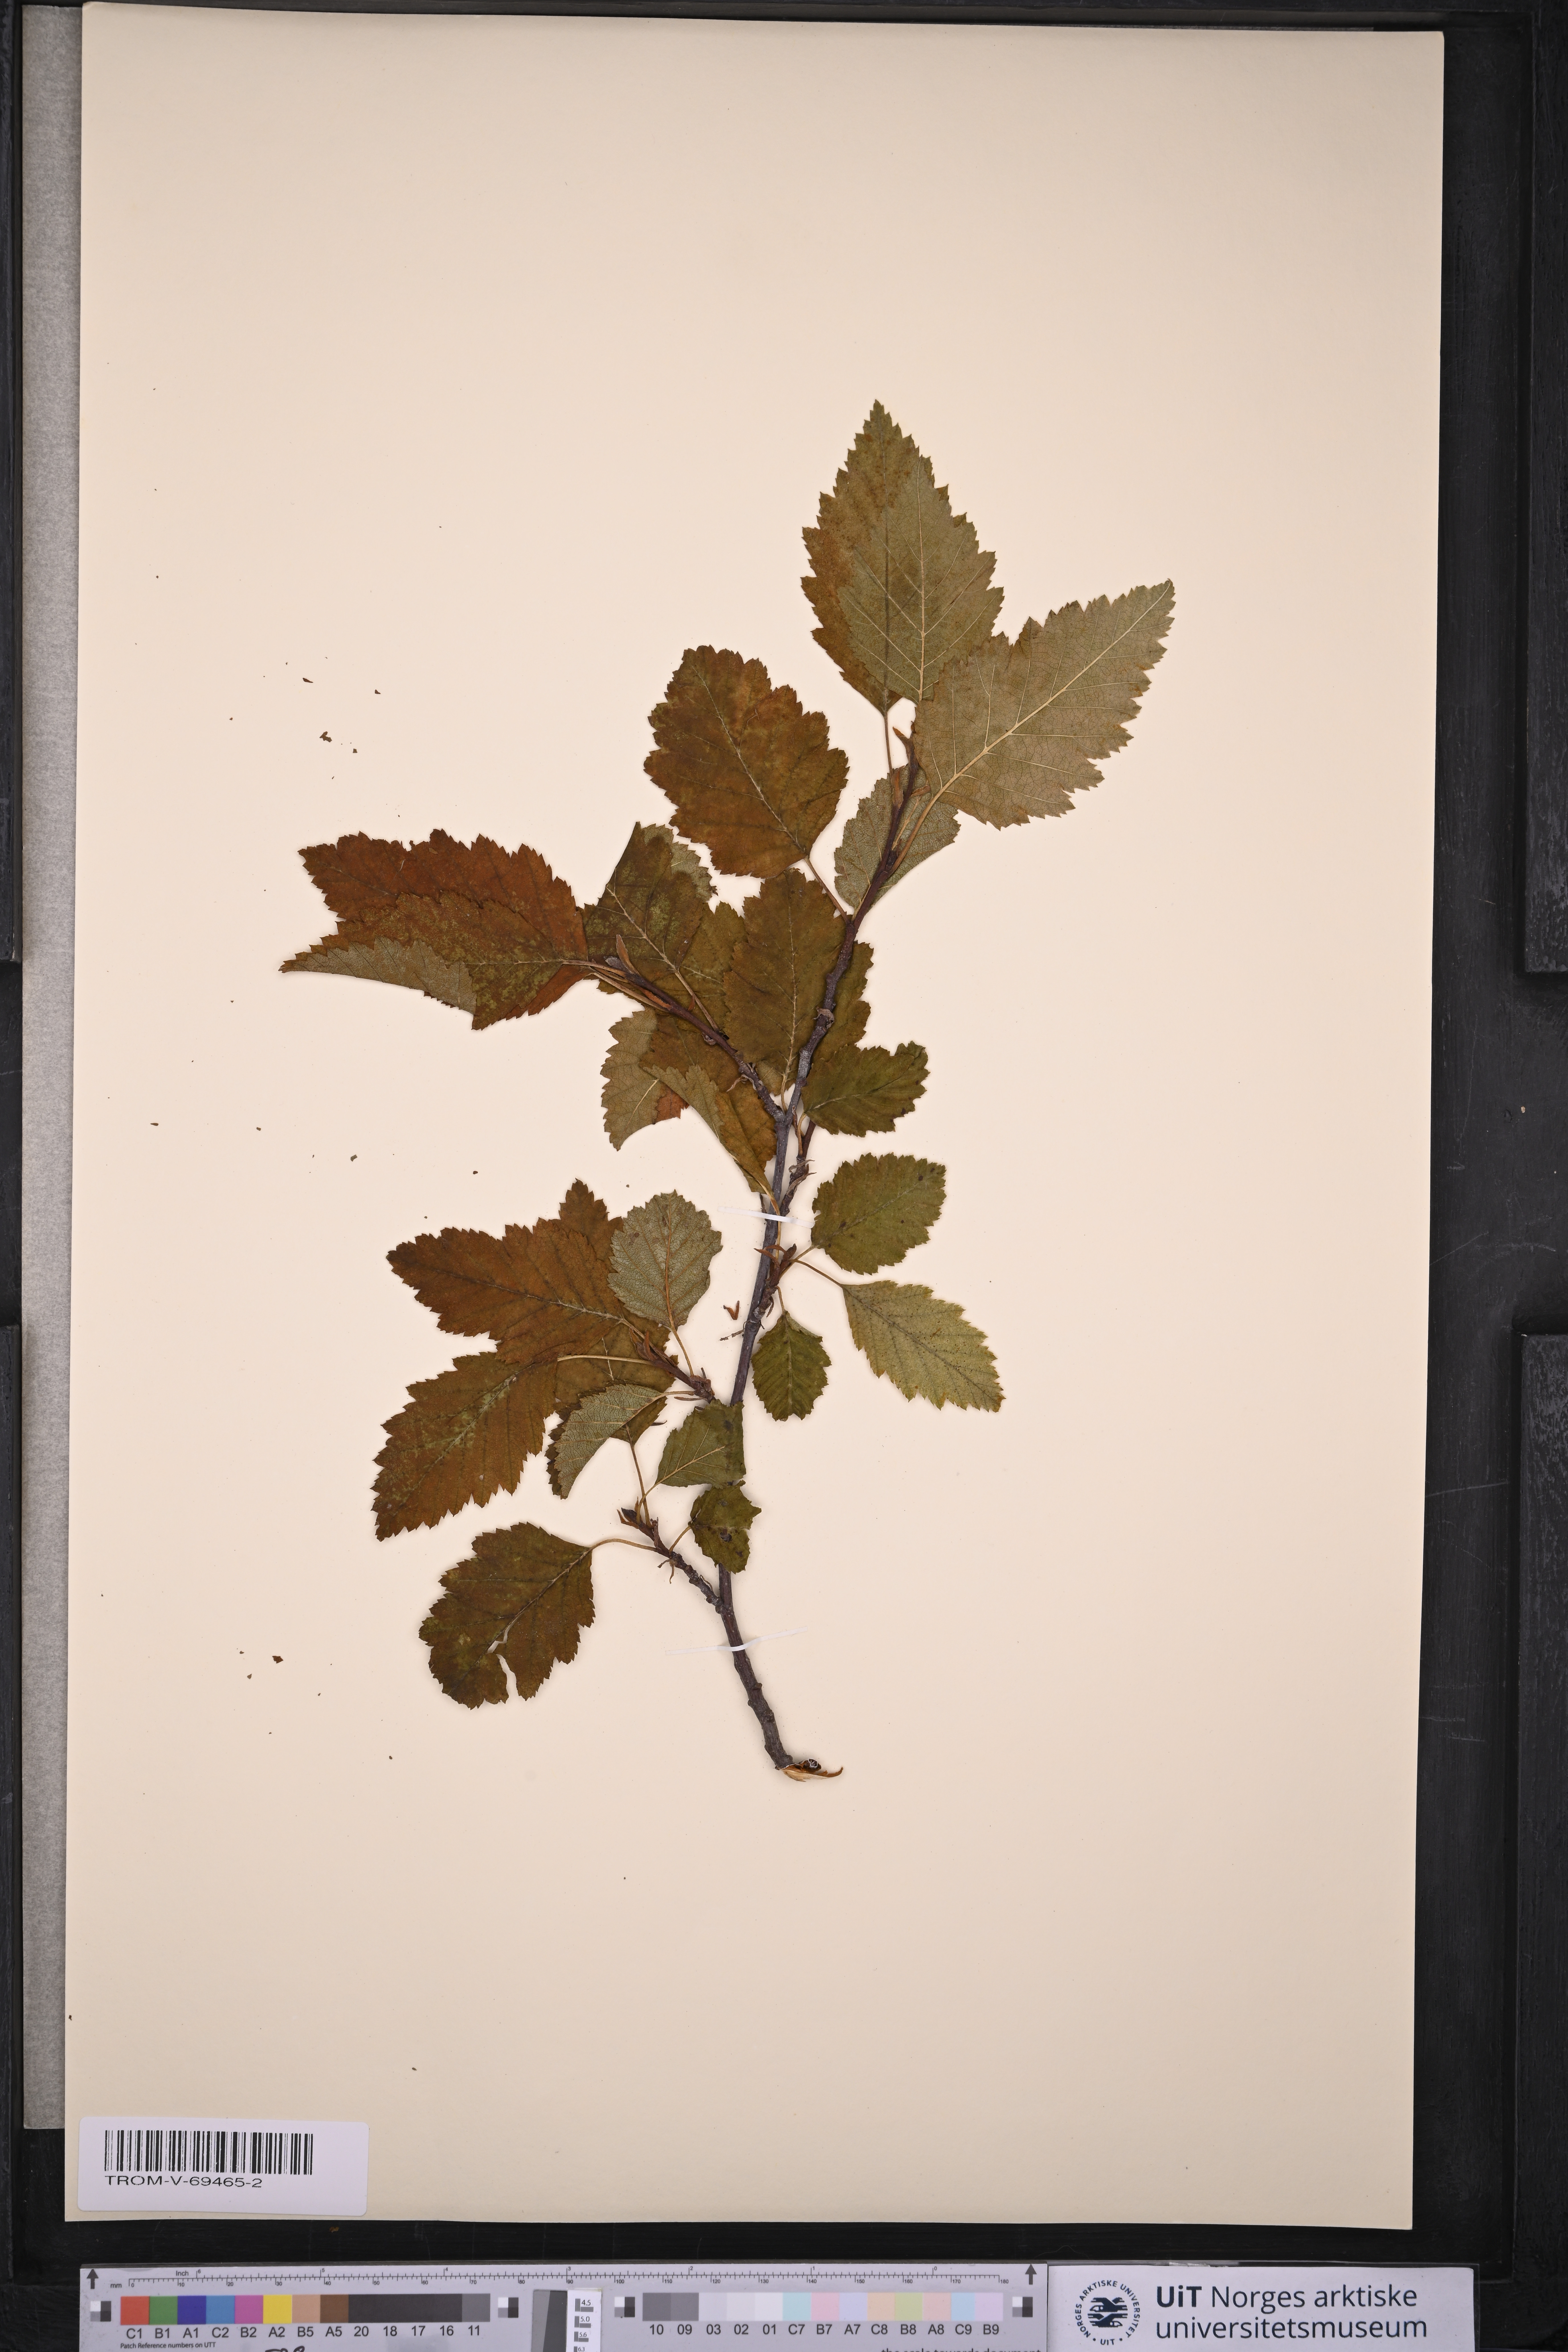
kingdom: Plantae
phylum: Tracheophyta
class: Magnoliopsida
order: Fagales
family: Betulaceae
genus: Alnus
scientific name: Alnus incana
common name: Grey alder
